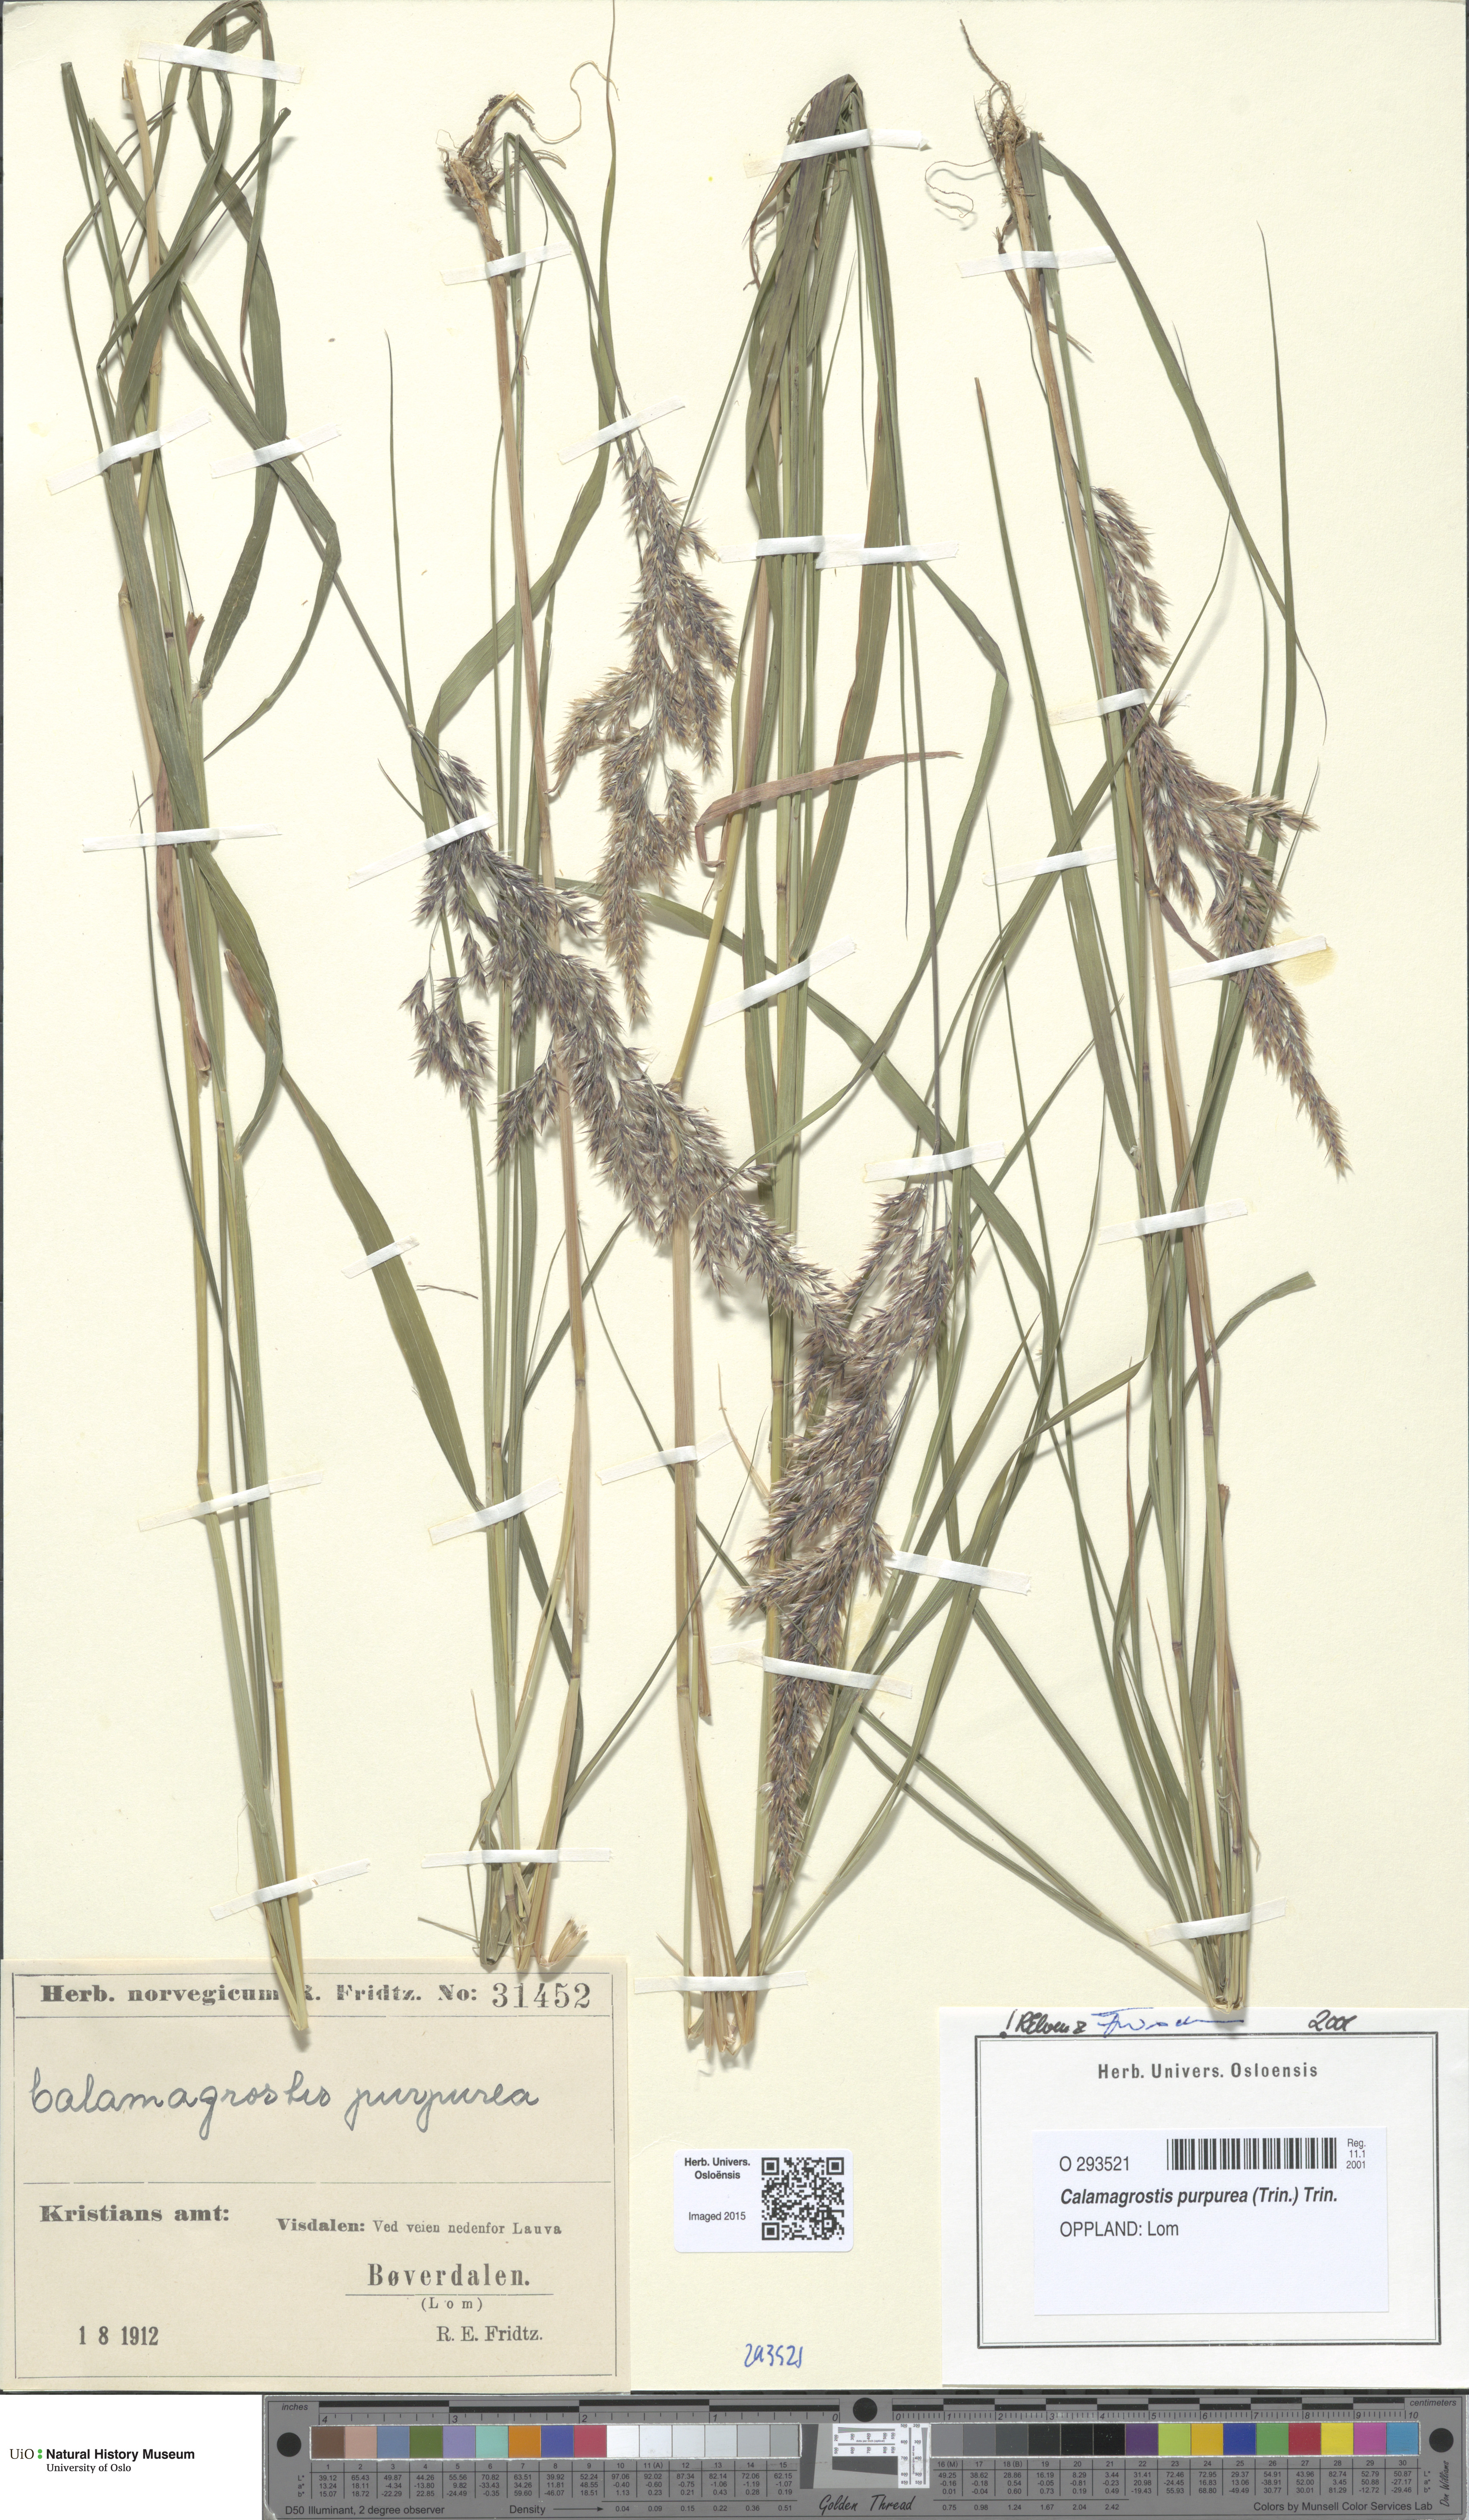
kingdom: Plantae
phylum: Tracheophyta
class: Liliopsida
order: Poales
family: Poaceae
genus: Calamagrostis
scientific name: Calamagrostis purpurea
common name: Scandinavian small-reed
